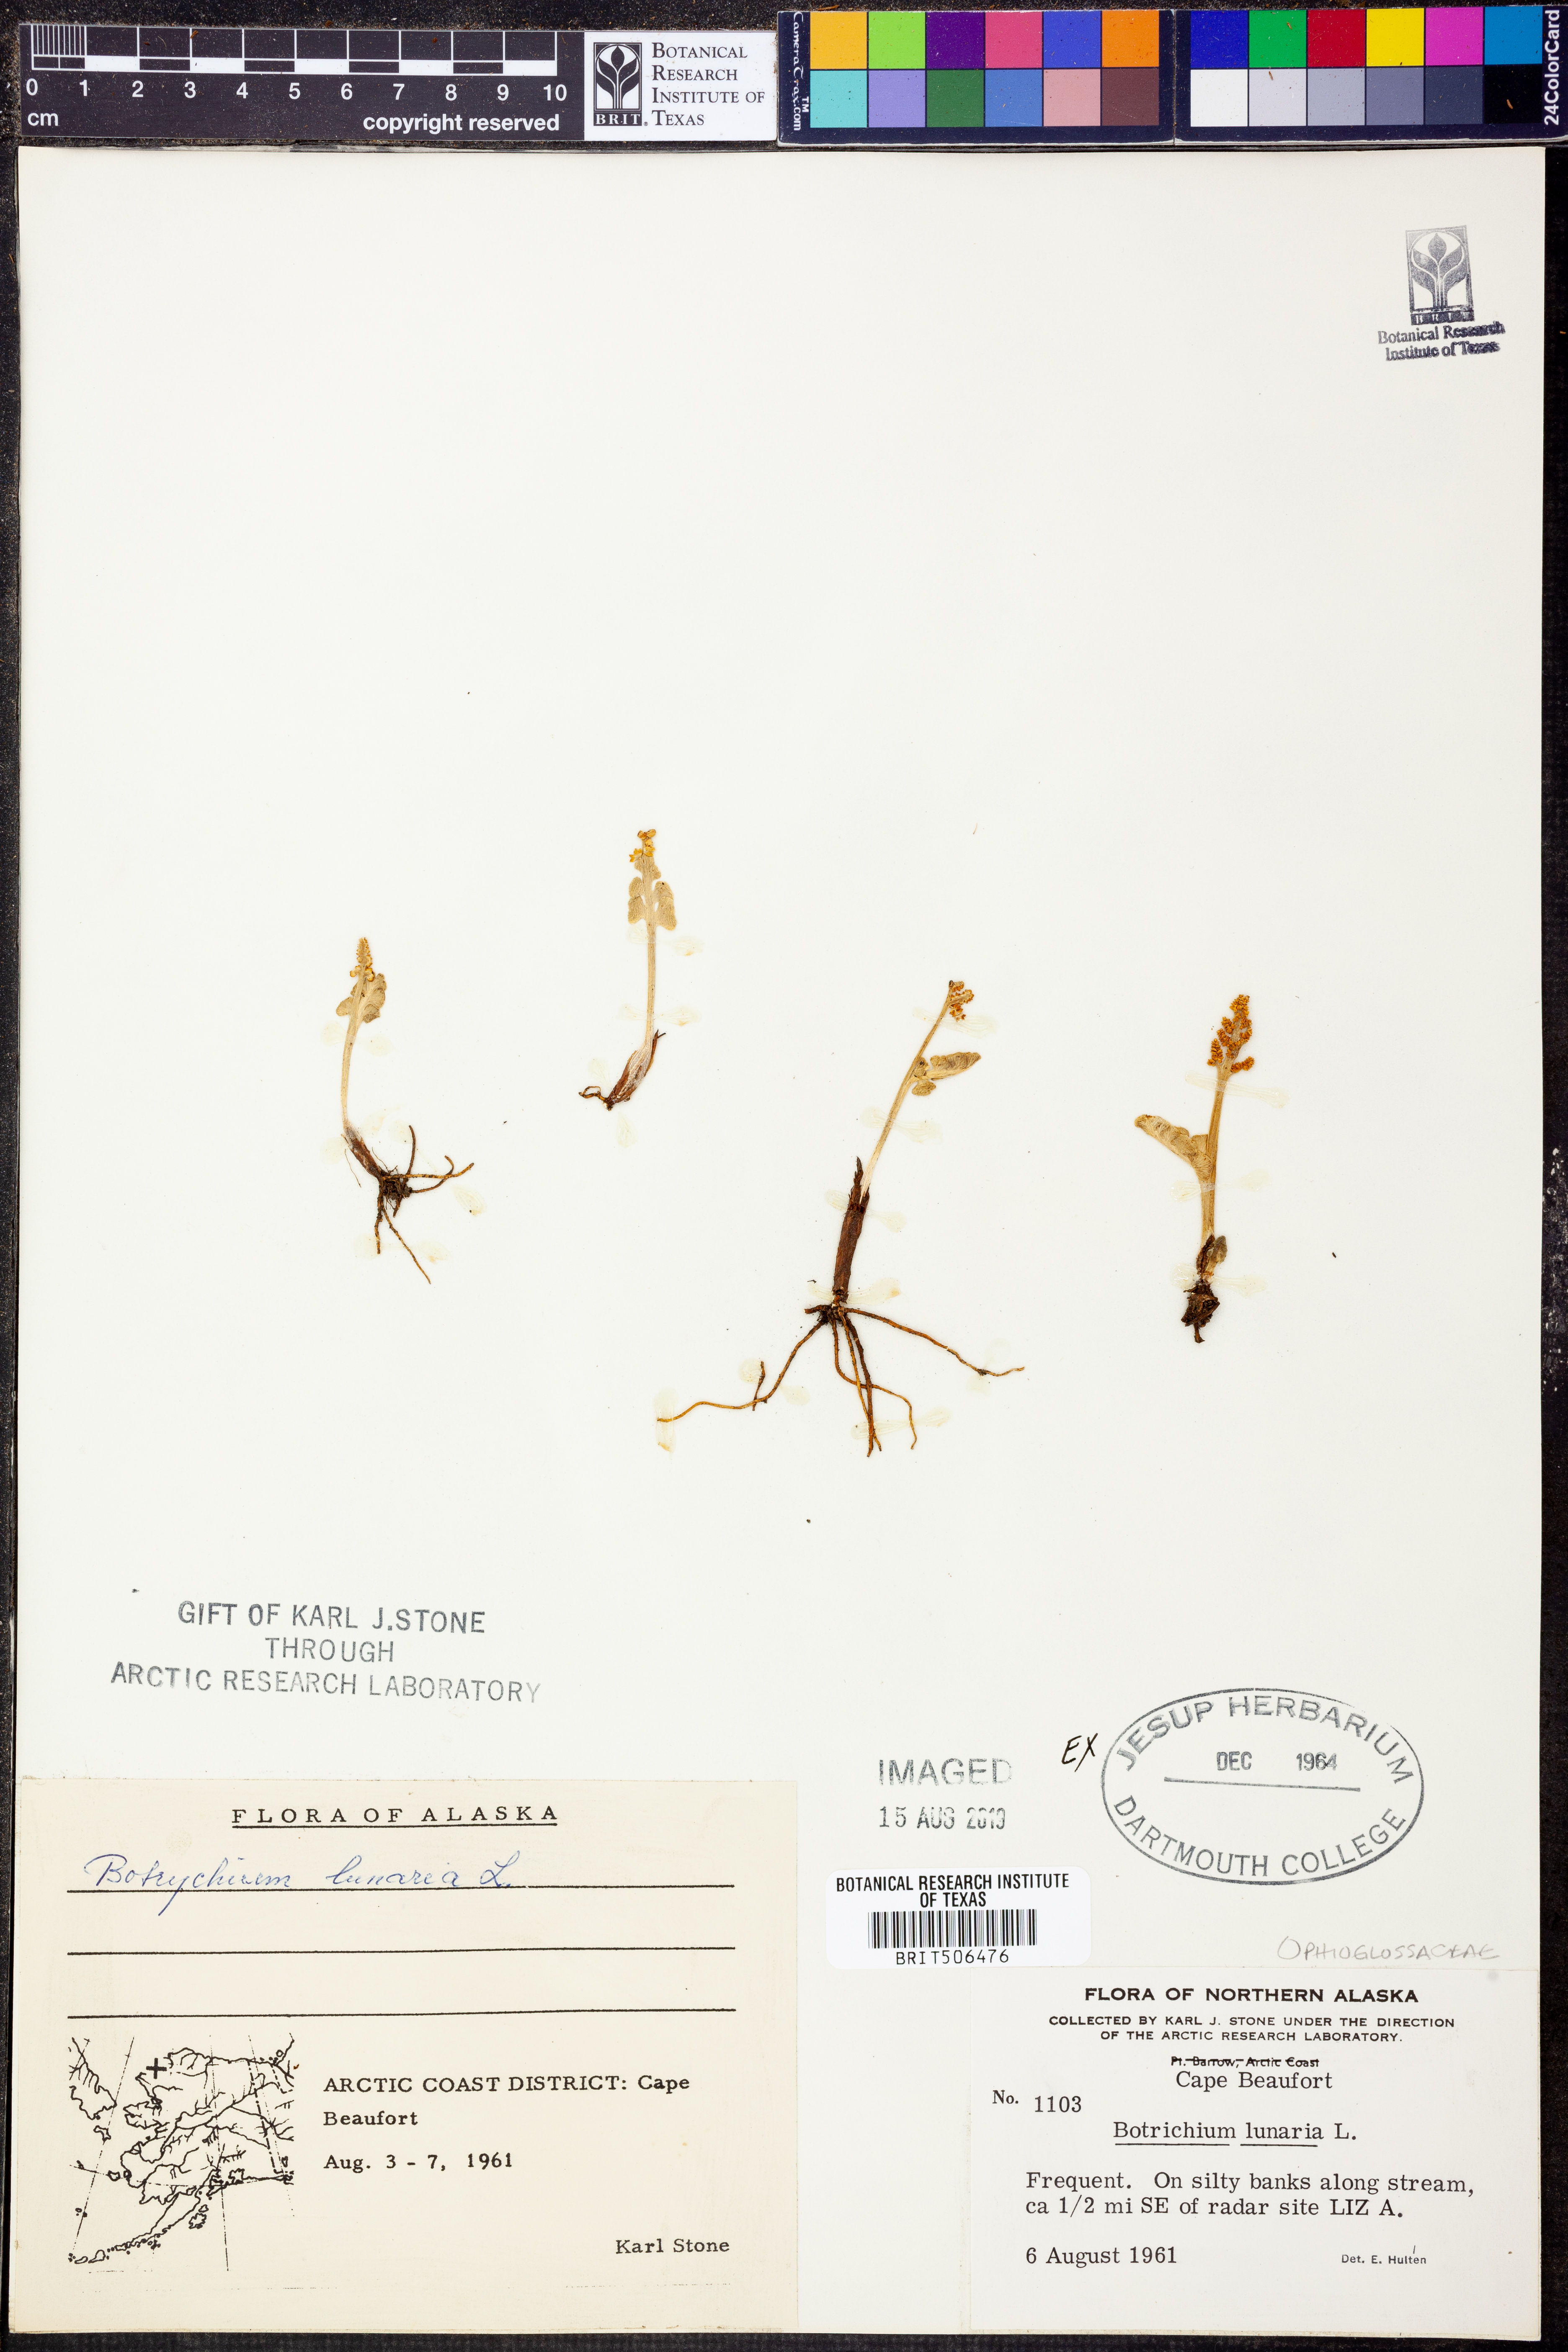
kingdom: Plantae
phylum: Tracheophyta
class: Polypodiopsida
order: Ophioglossales
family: Ophioglossaceae
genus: Botrychium
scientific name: Botrychium lunaria
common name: Moonwort
